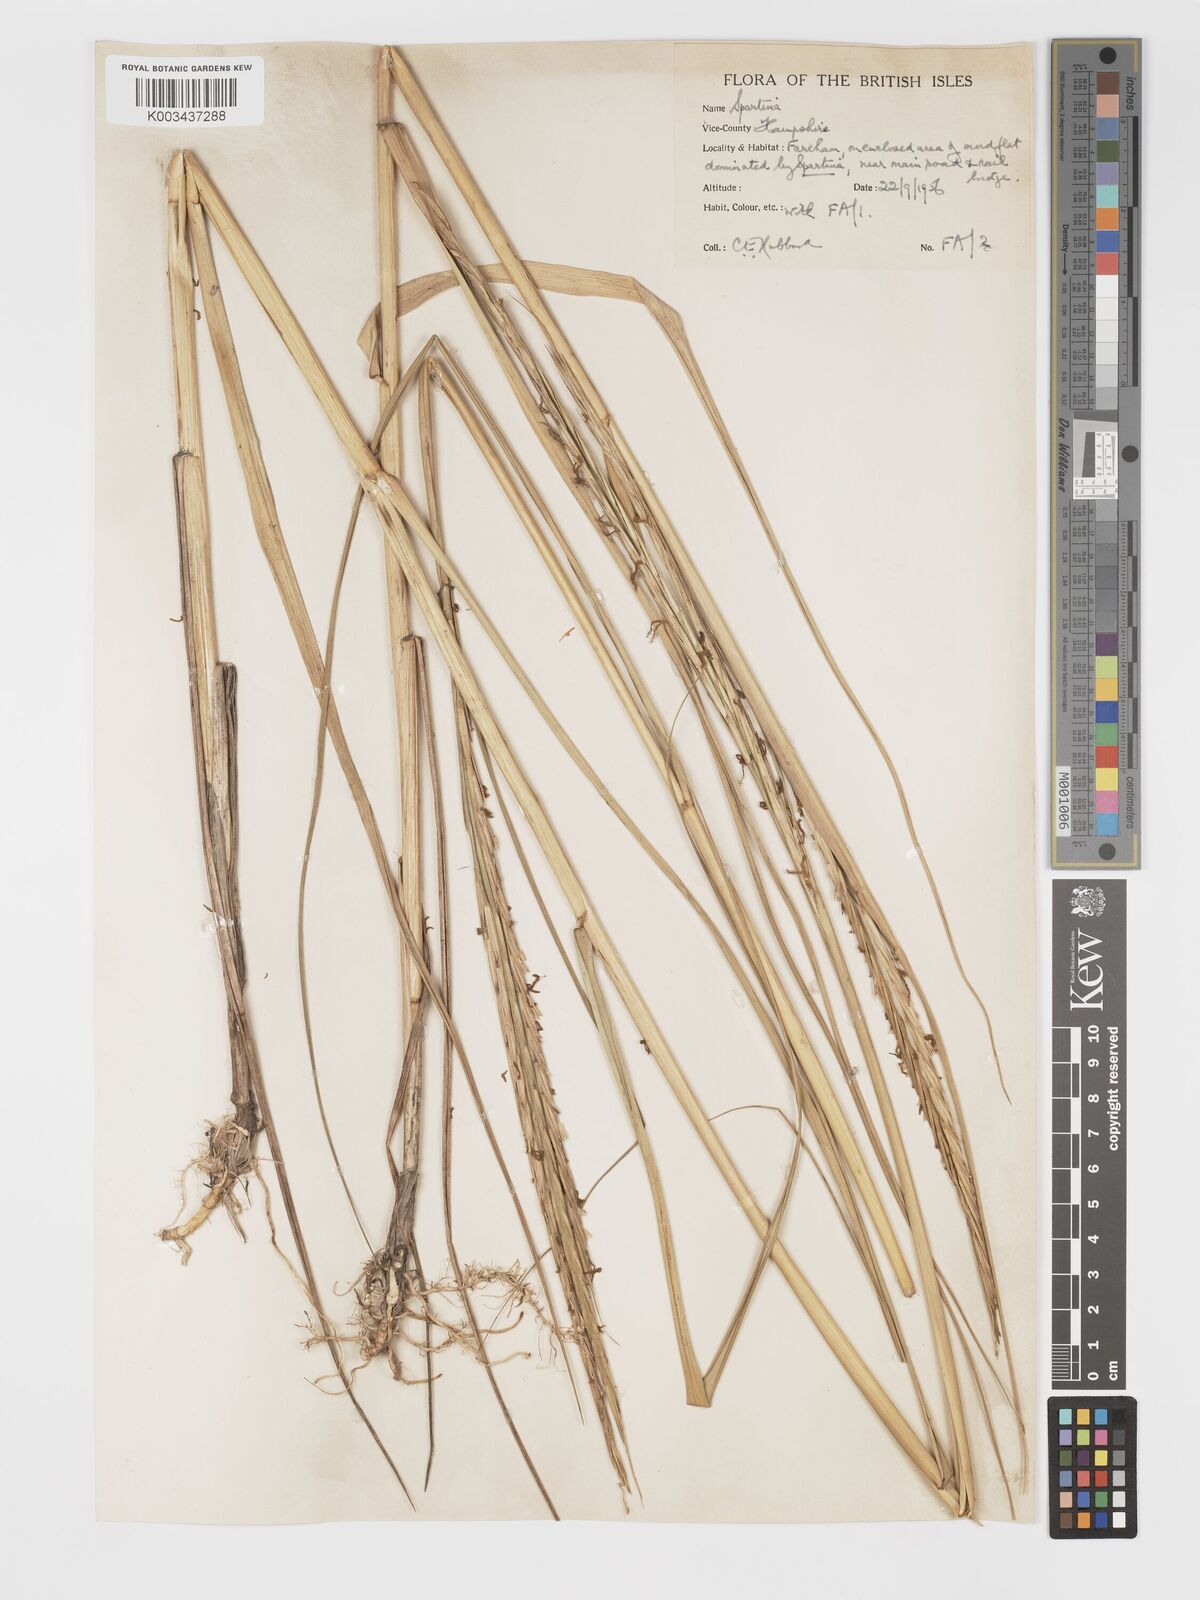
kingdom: Plantae
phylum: Tracheophyta
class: Liliopsida
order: Poales
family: Poaceae
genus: Sporobolus
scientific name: Sporobolus townsendii
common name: Townsend's cordgrass
